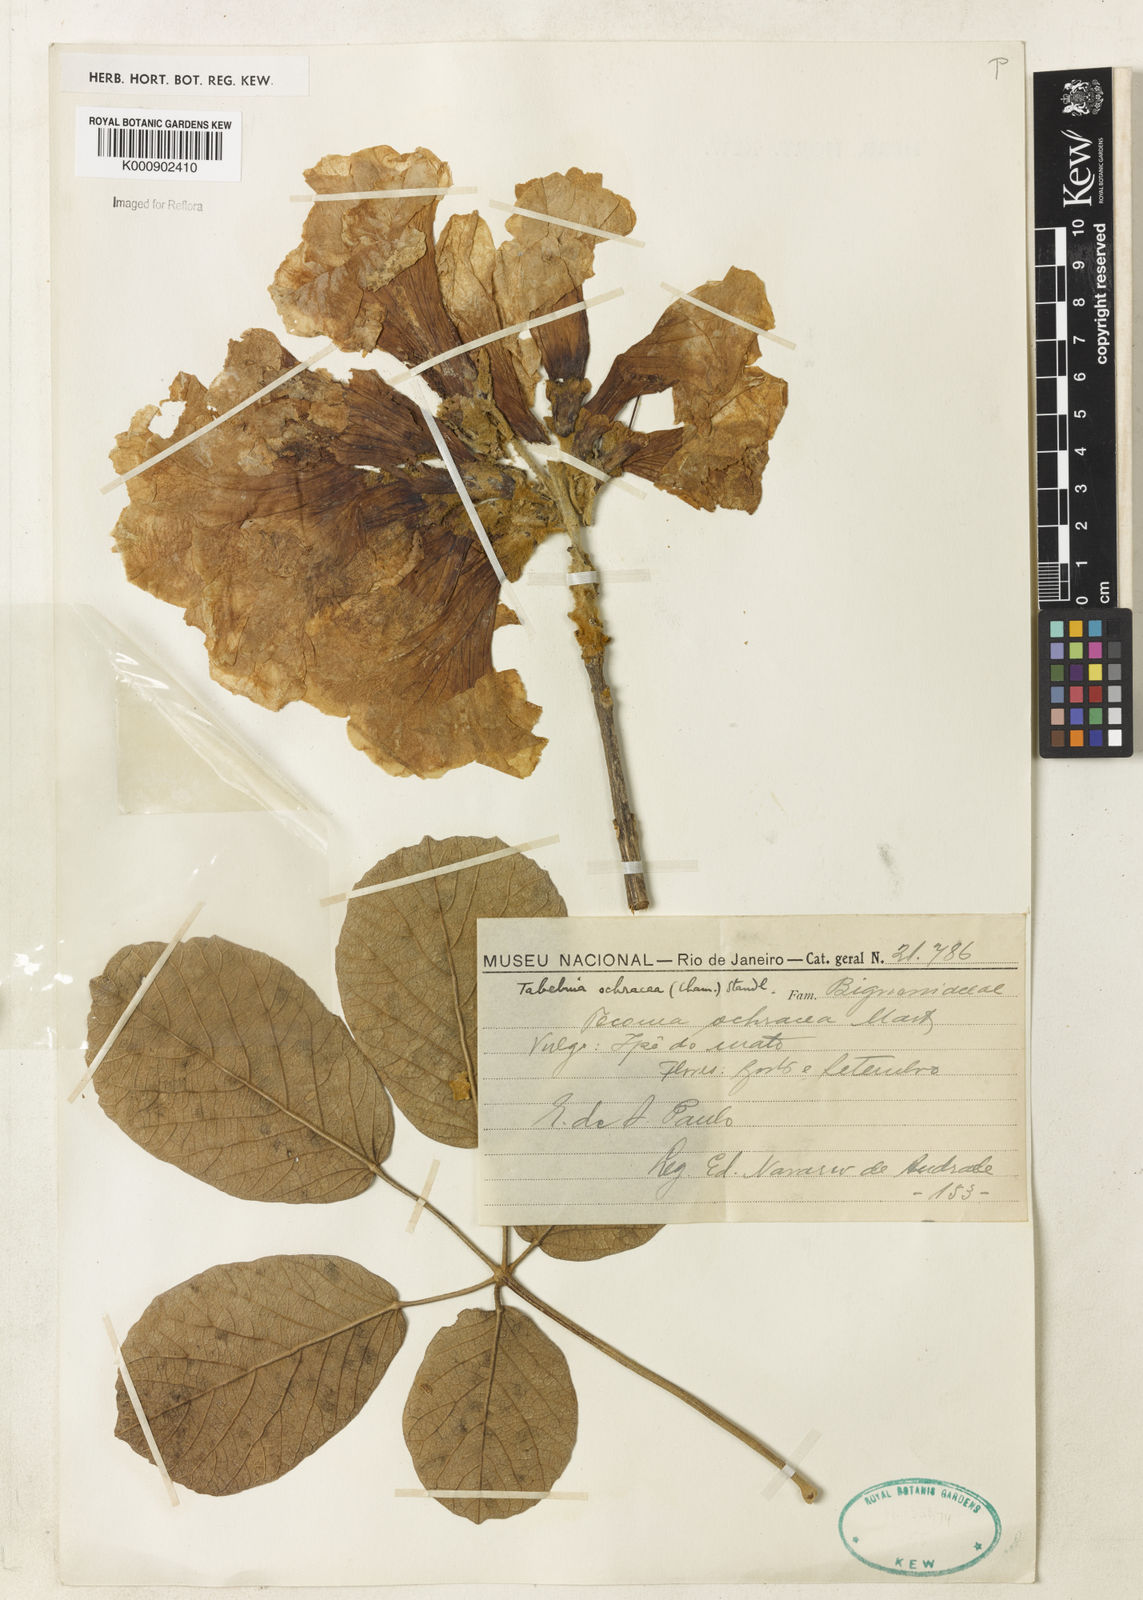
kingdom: Plantae
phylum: Tracheophyta
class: Magnoliopsida
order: Lamiales
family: Bignoniaceae
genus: Handroanthus
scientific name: Handroanthus ochraceus
